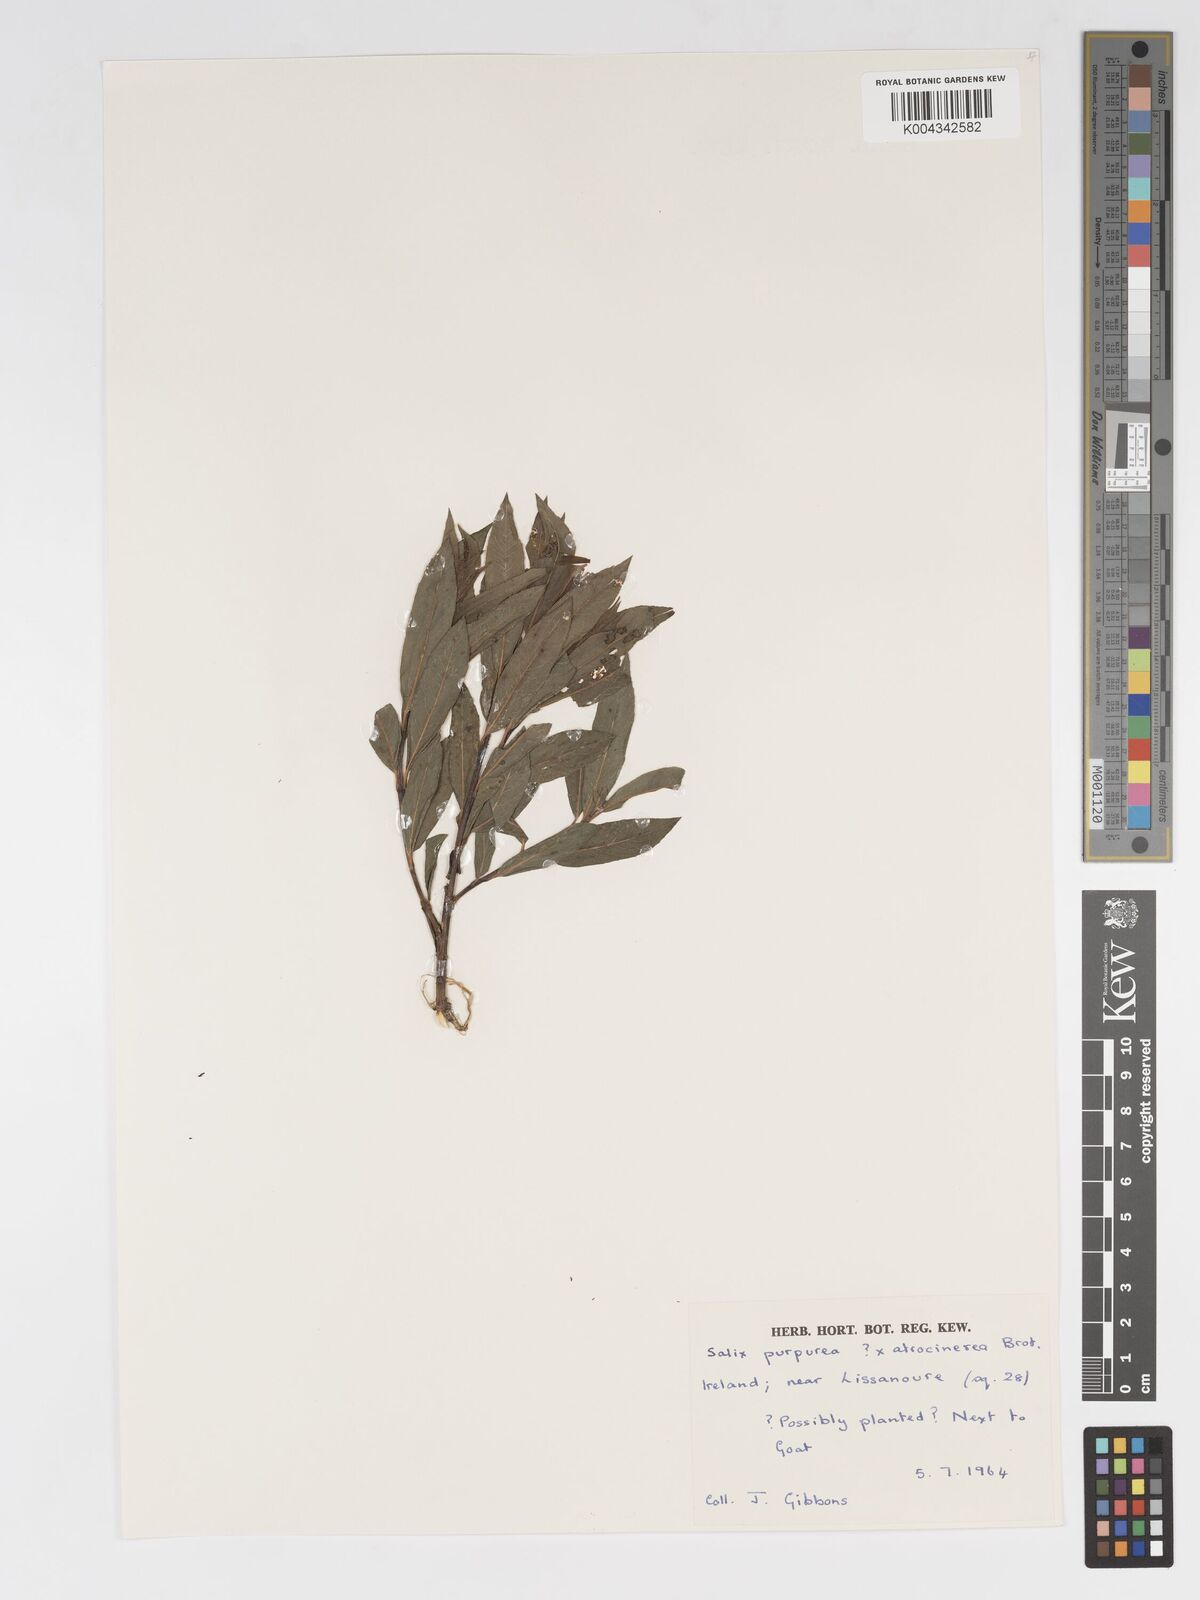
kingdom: Plantae
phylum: Tracheophyta
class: Magnoliopsida
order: Malpighiales
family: Salicaceae
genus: Salix
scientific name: Salix cinerea
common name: Common sallow
